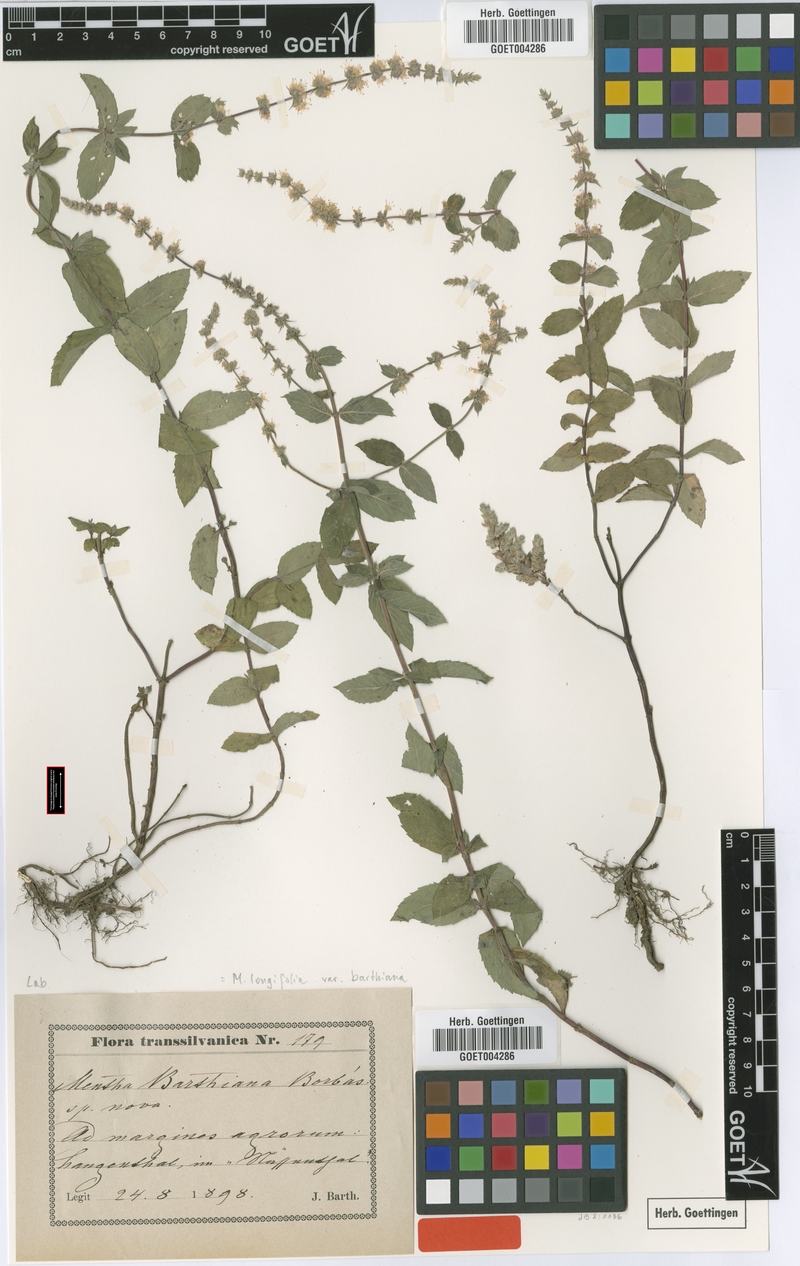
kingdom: Plantae
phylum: Tracheophyta
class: Magnoliopsida
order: Lamiales
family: Lamiaceae
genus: Mentha
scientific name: Mentha longifolia
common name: Horse mint
